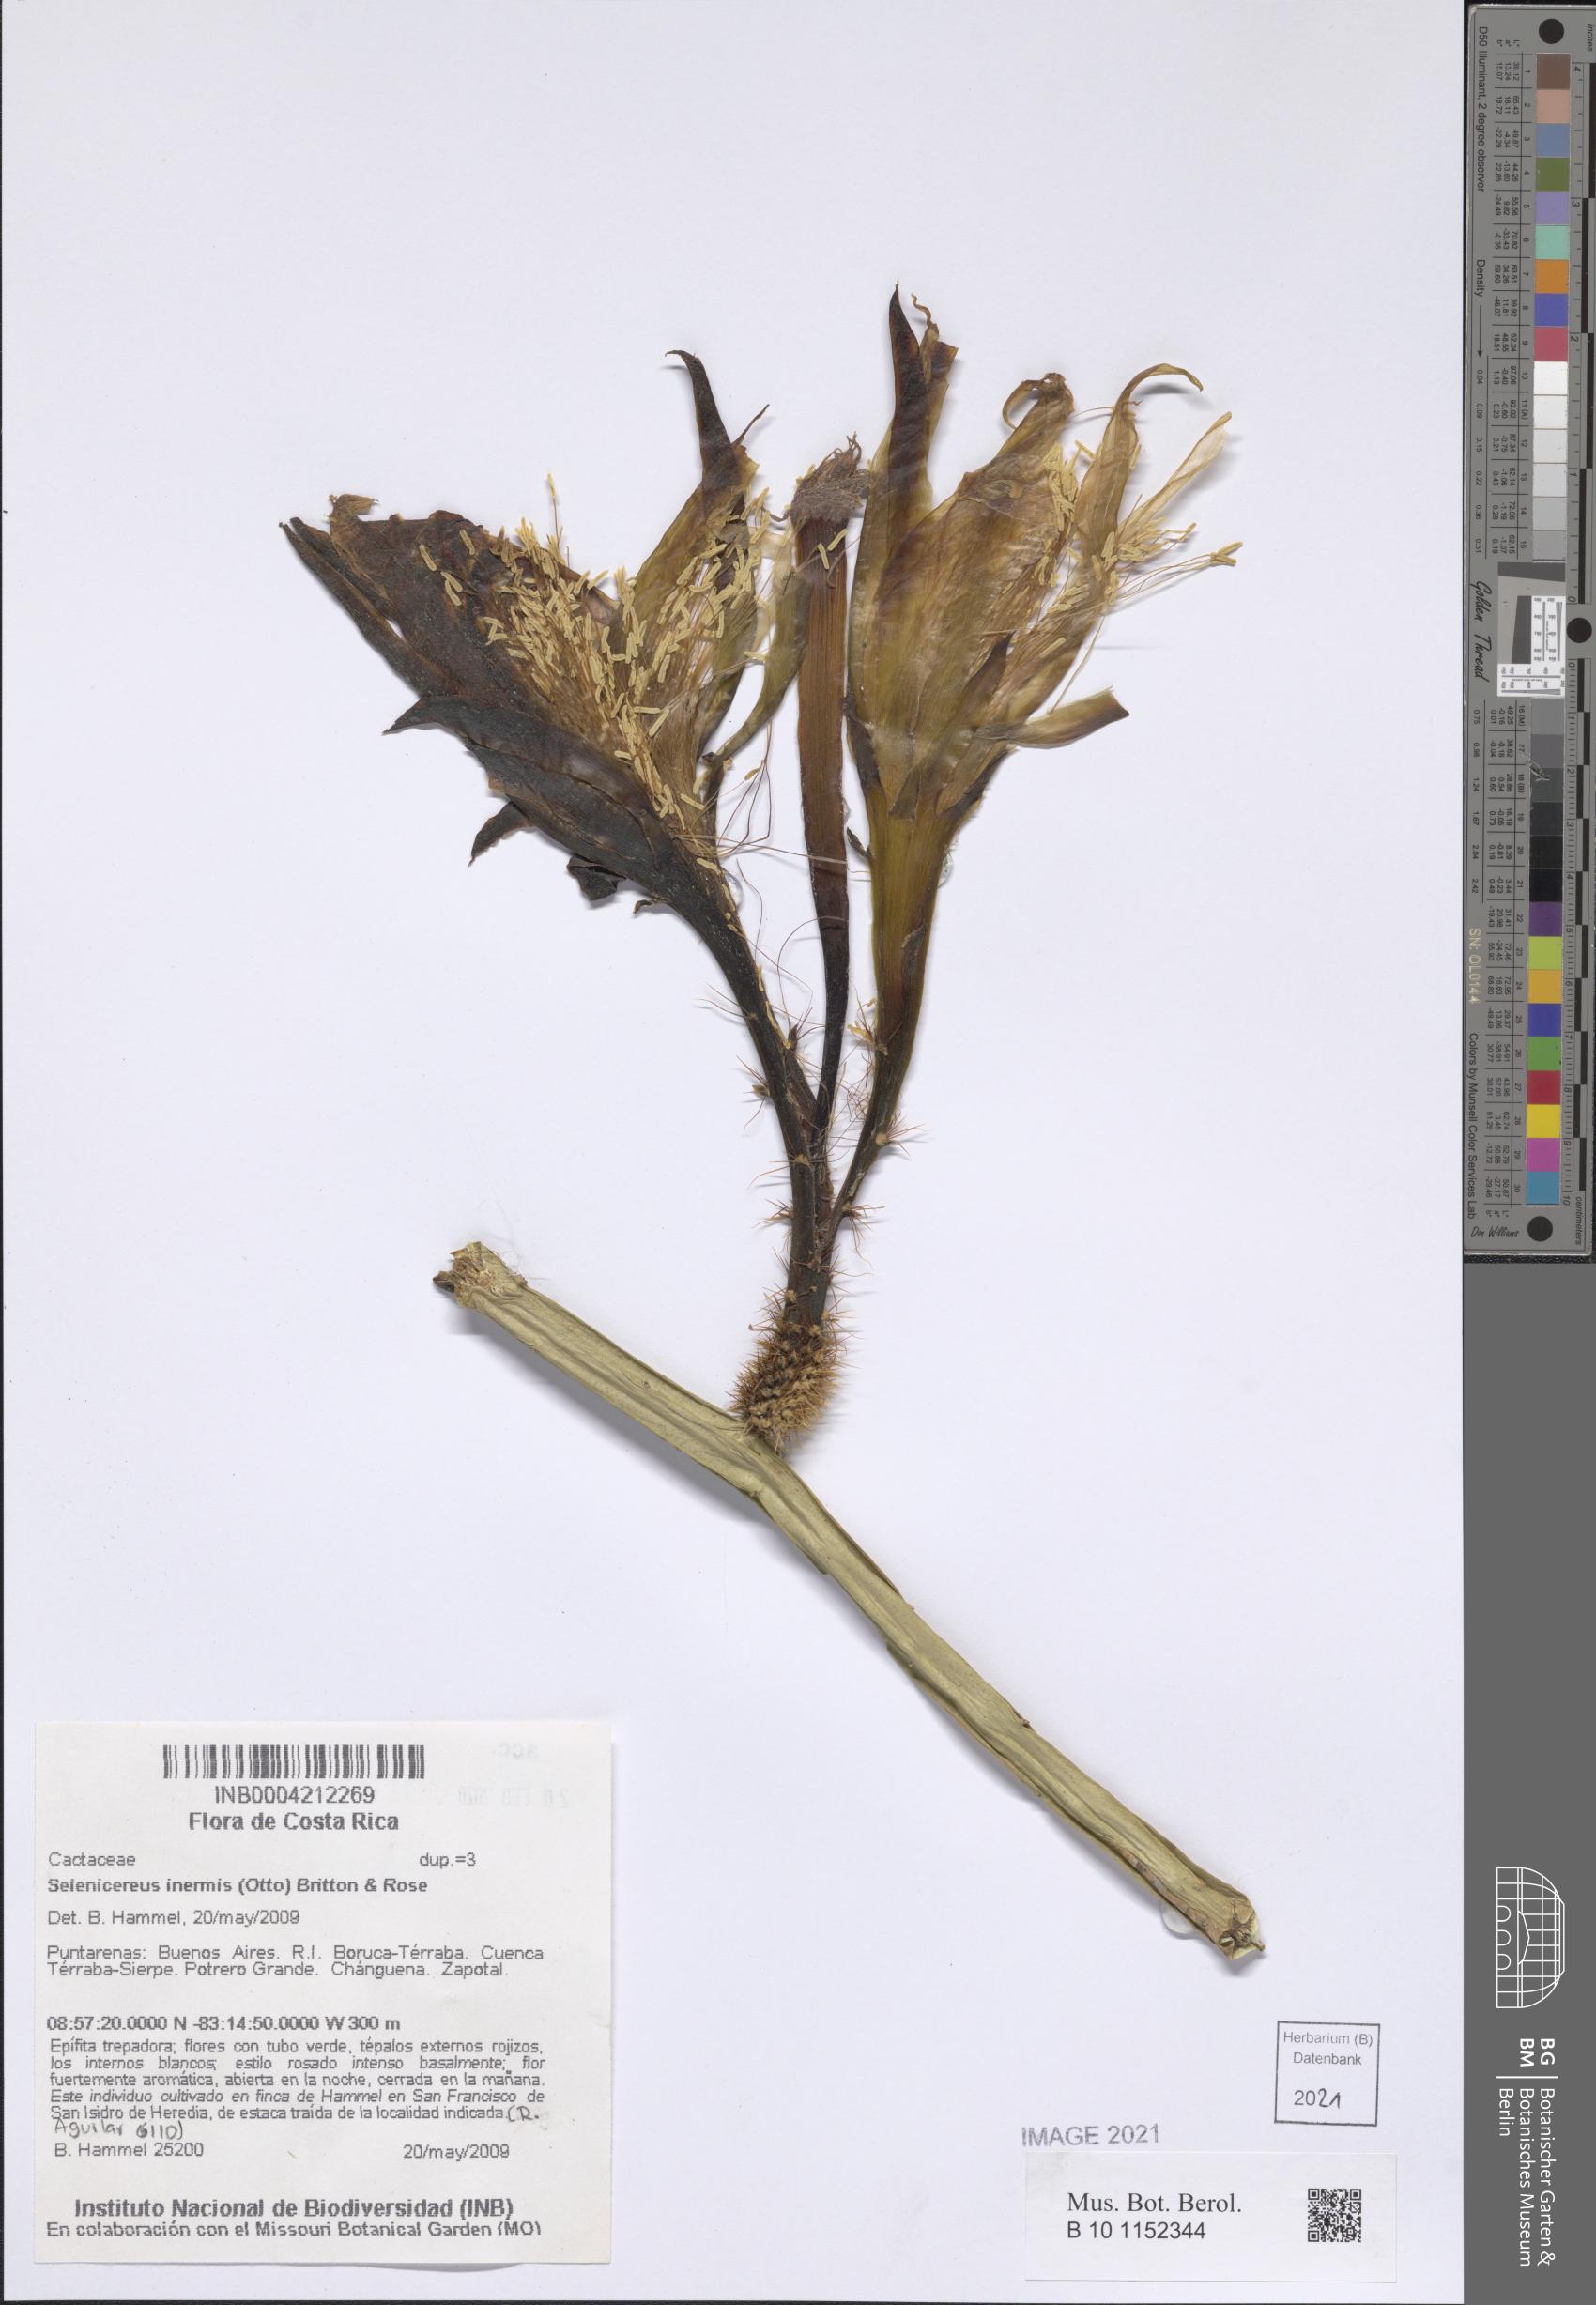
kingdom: Plantae
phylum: Tracheophyta
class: Magnoliopsida
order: Caryophyllales
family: Cactaceae
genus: Selenicereus
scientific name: Selenicereus inermis
